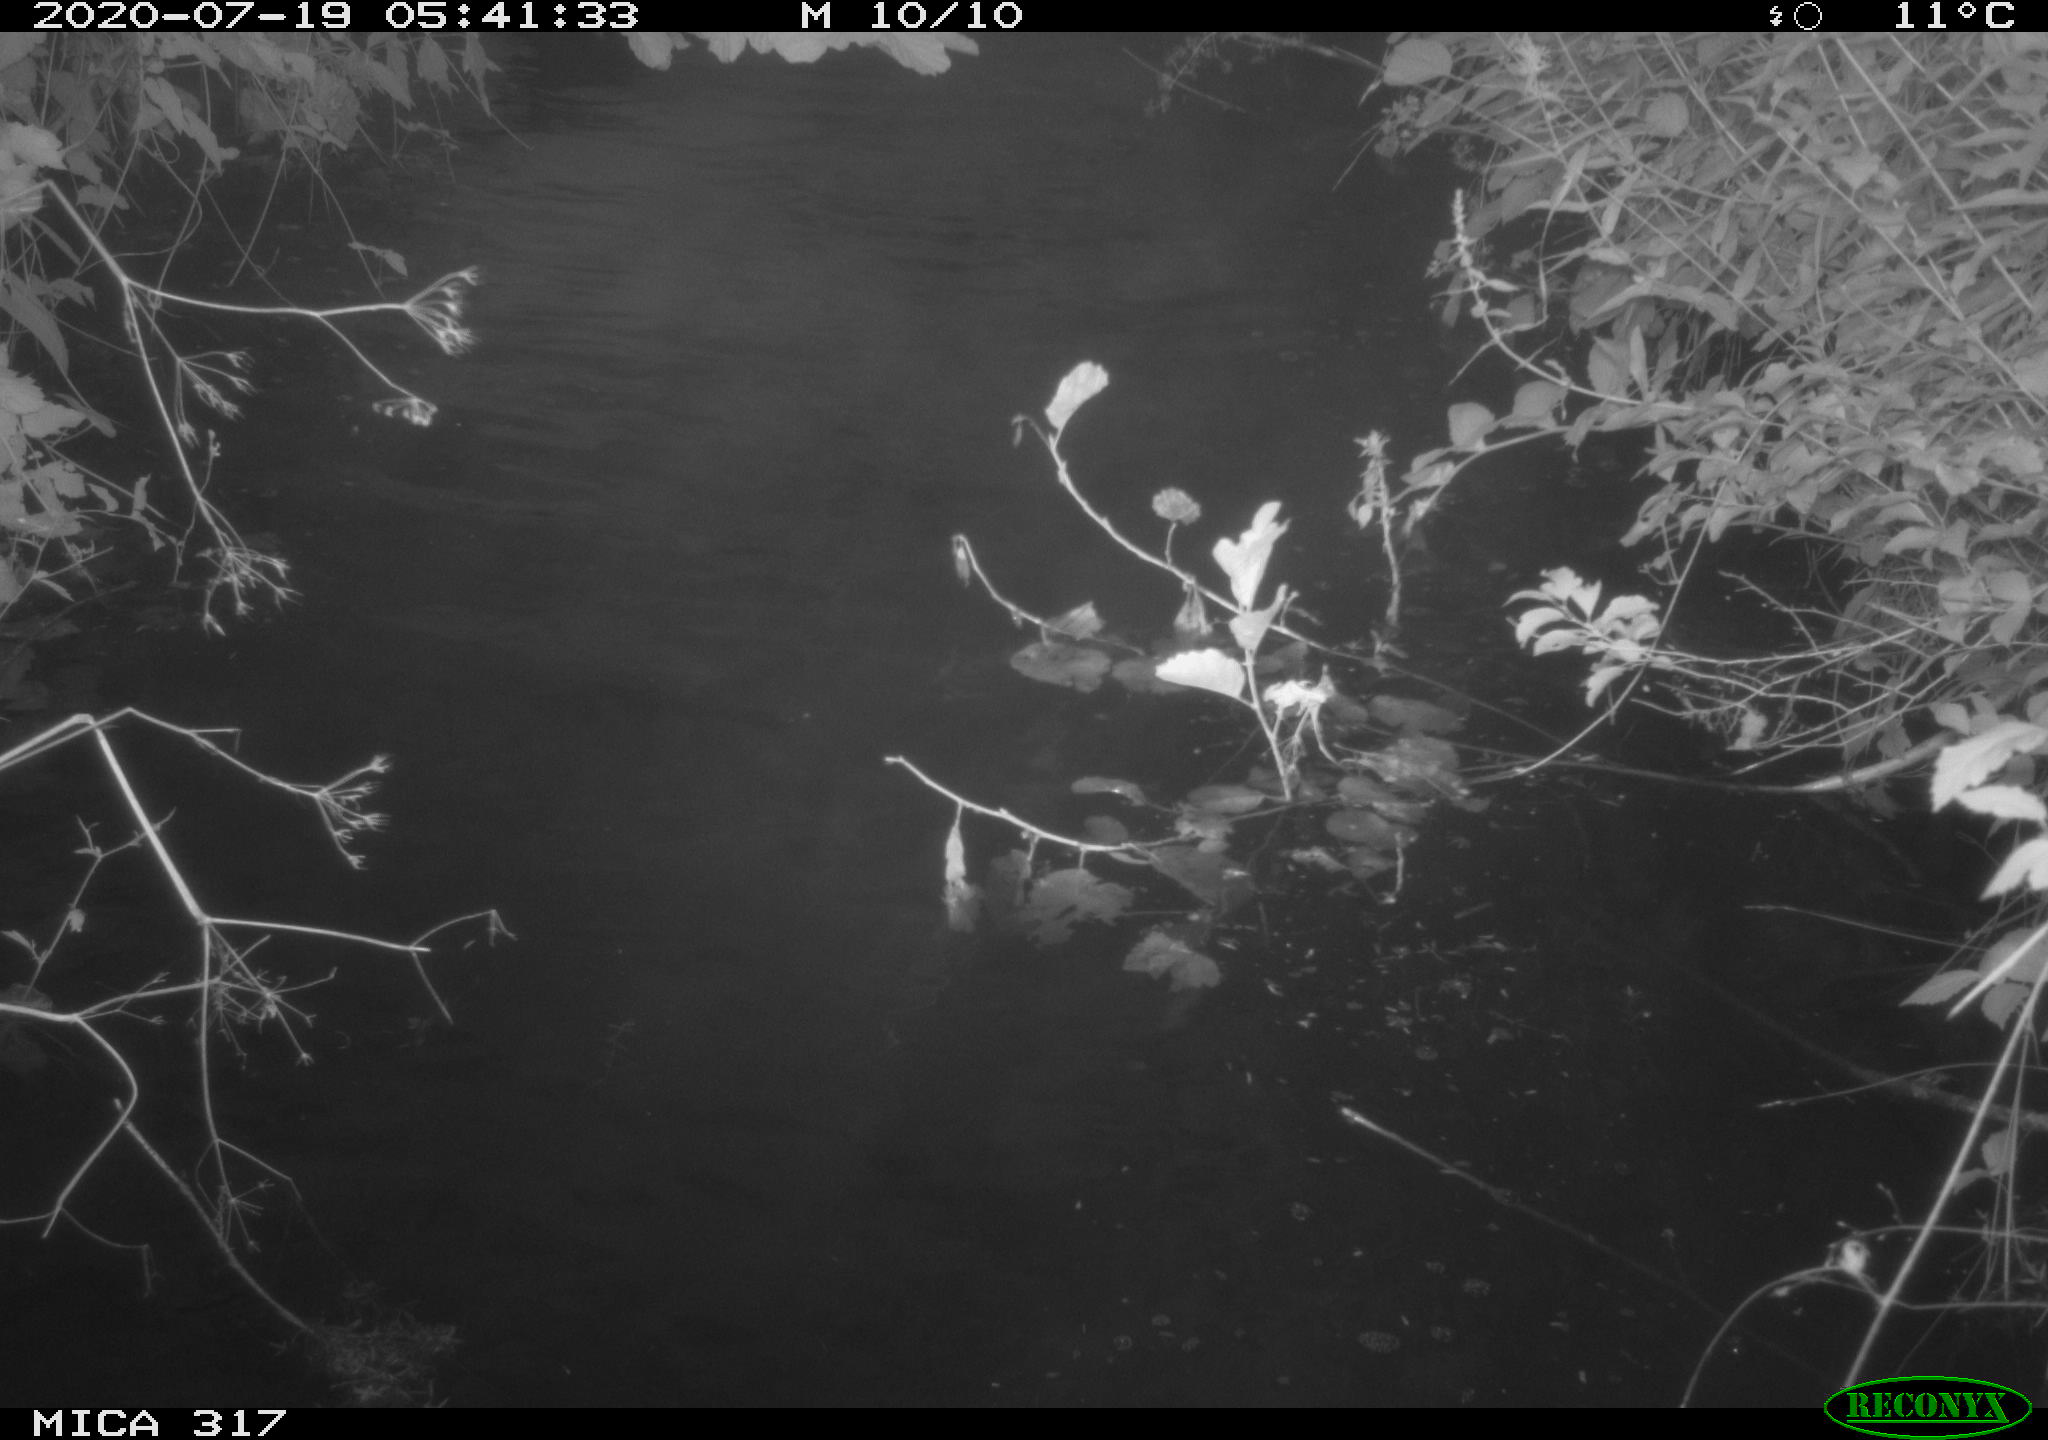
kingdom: Animalia
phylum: Chordata
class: Aves
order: Anseriformes
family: Anatidae
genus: Anas
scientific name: Anas platyrhynchos
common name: Mallard
